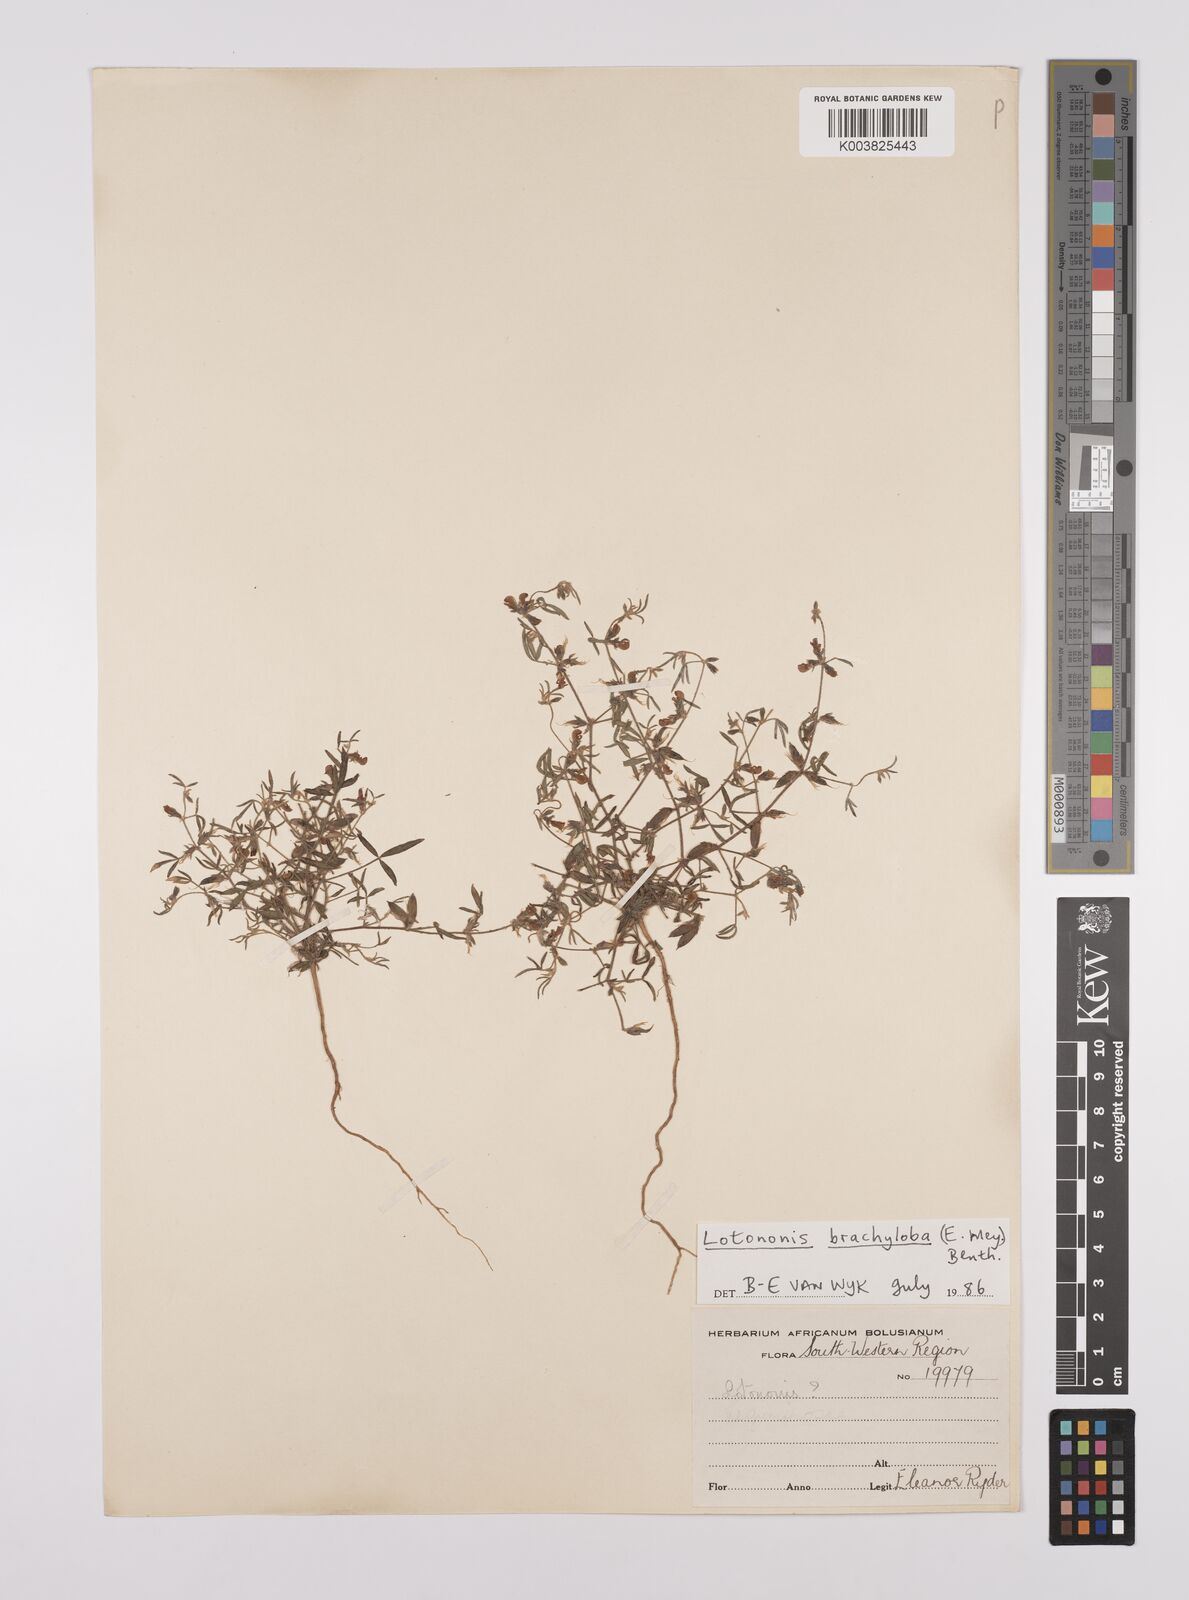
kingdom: Plantae
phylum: Tracheophyta
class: Magnoliopsida
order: Fabales
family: Fabaceae
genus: Lotononis
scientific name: Lotononis parviflora
